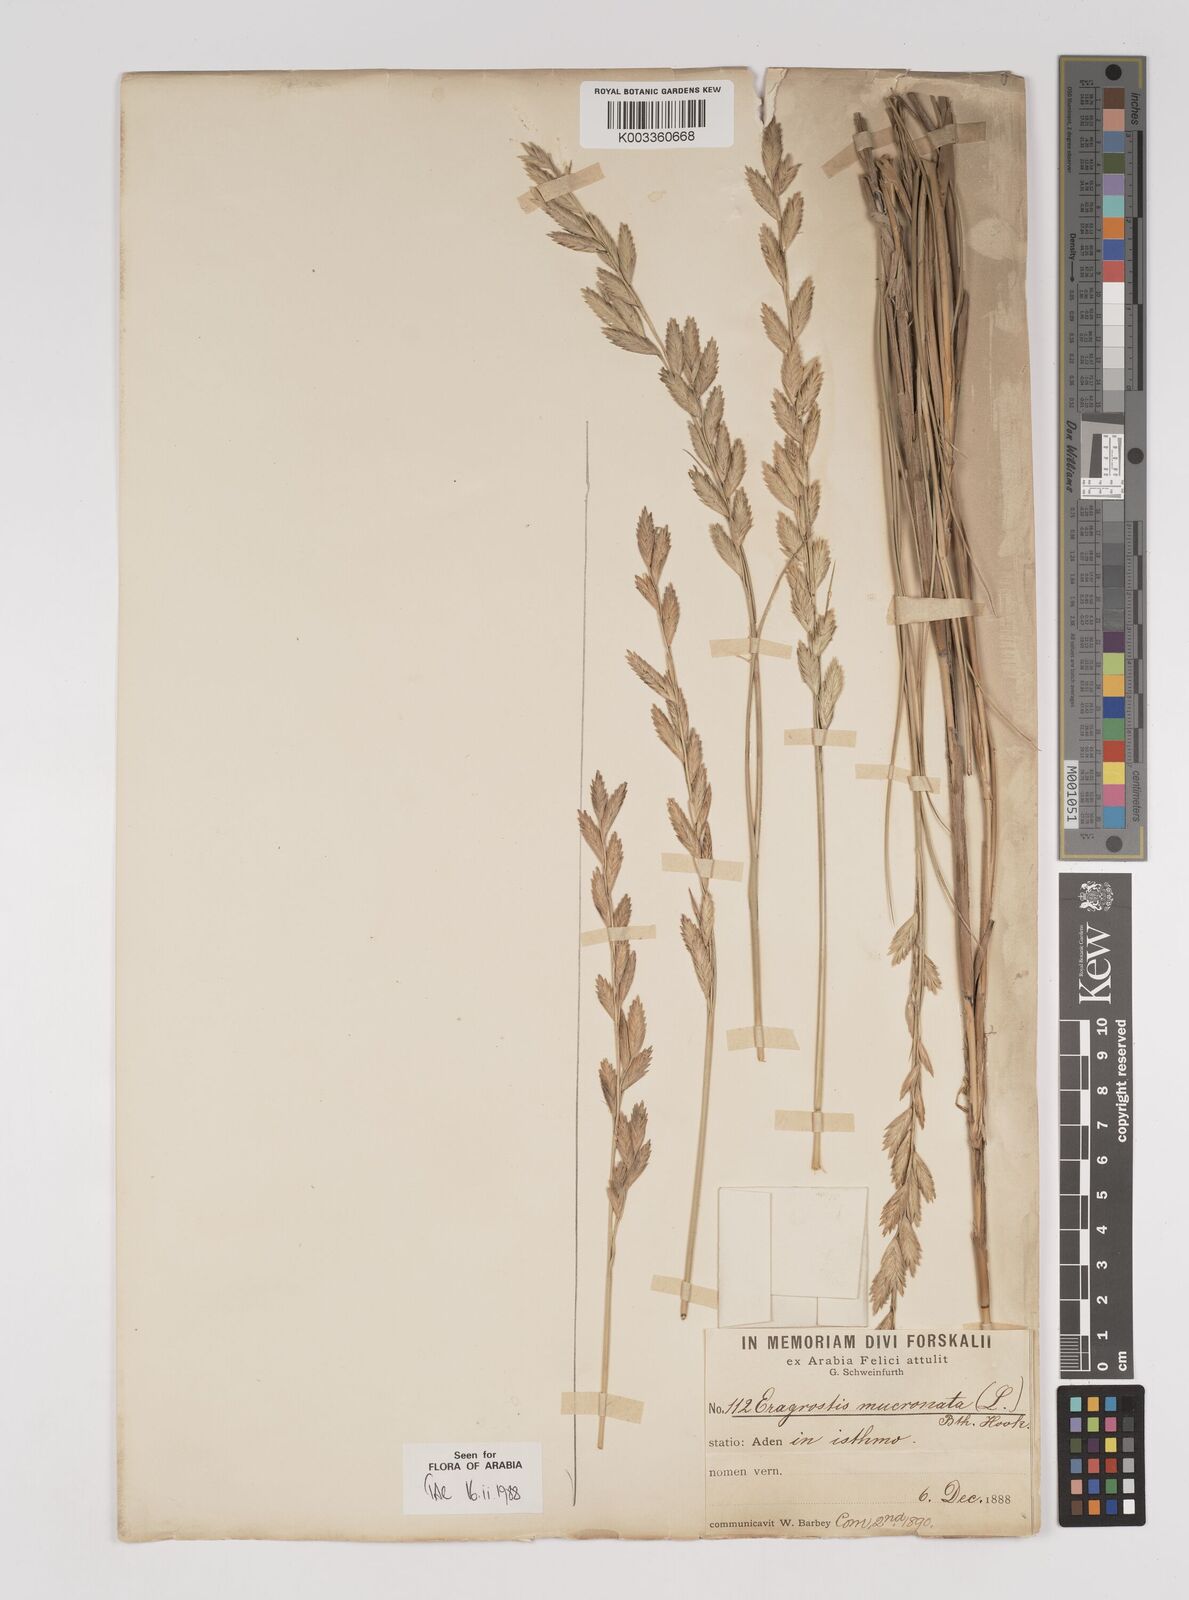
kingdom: Plantae
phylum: Tracheophyta
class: Liliopsida
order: Poales
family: Poaceae
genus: Halopyrum
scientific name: Halopyrum mucronatum
